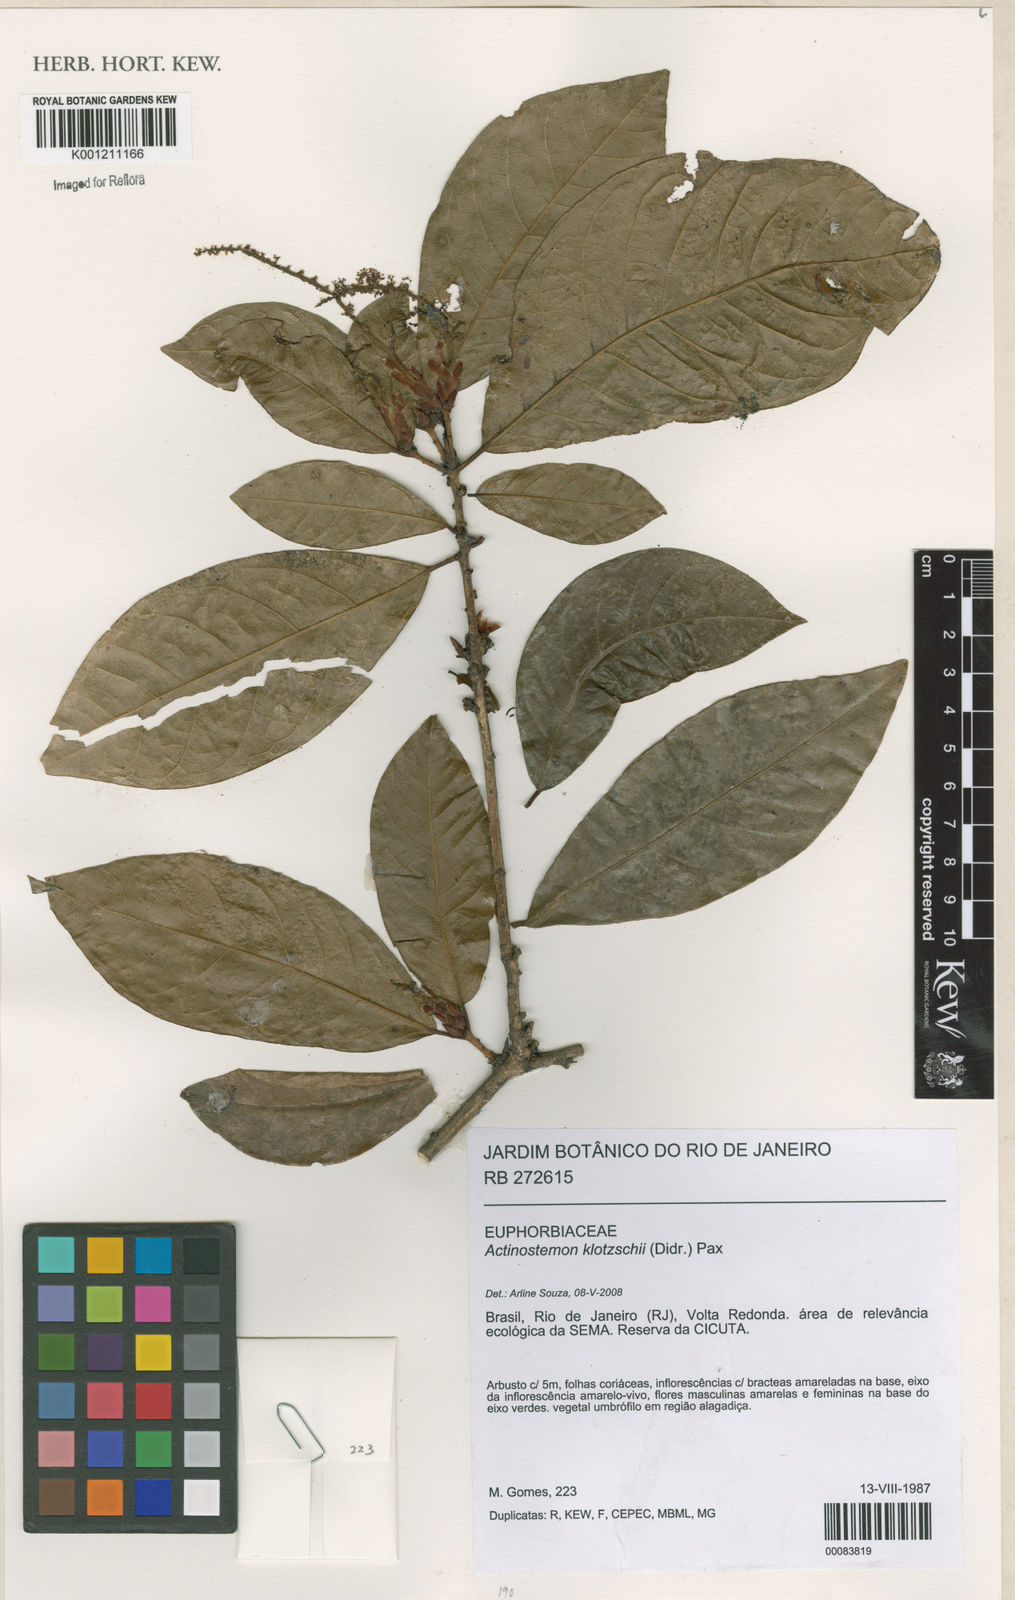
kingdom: Plantae
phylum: Tracheophyta
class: Magnoliopsida
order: Malpighiales
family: Euphorbiaceae
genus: Actinostemon
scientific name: Actinostemon klotzschii
